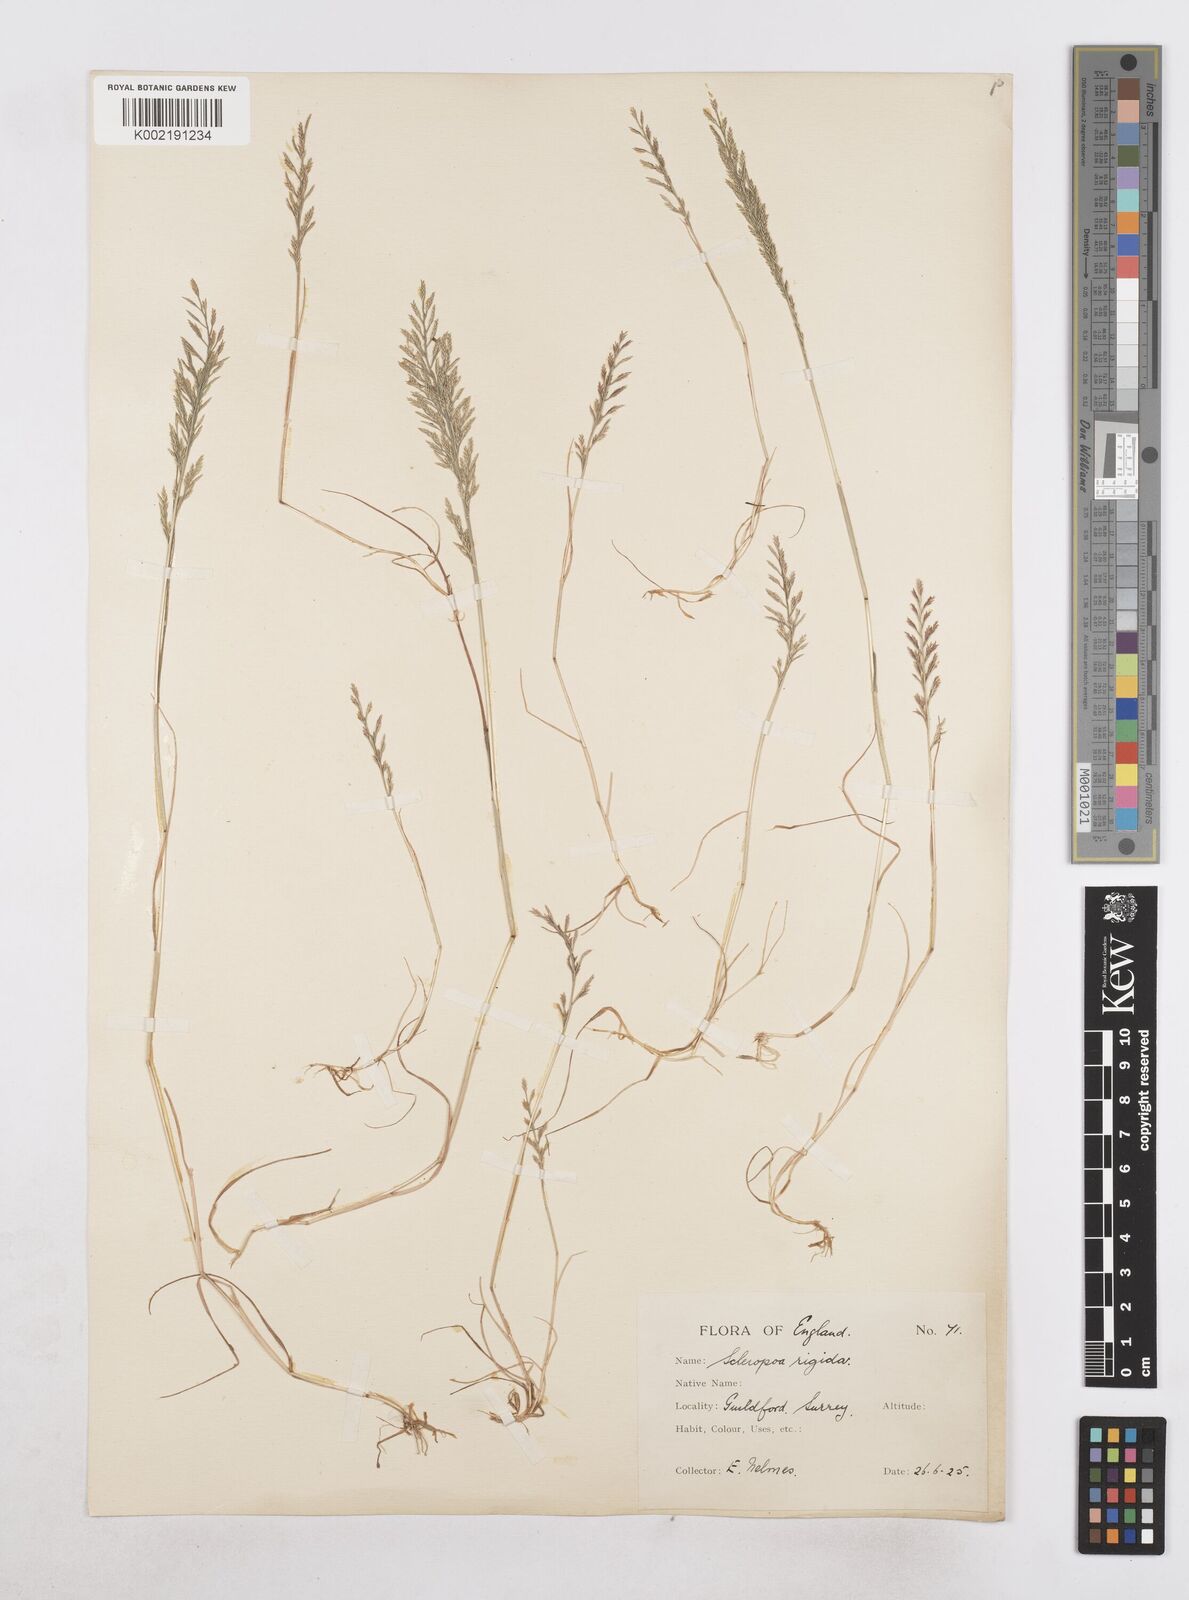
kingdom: Plantae
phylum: Tracheophyta
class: Liliopsida
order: Poales
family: Poaceae
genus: Catapodium
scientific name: Catapodium rigidum
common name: Fern-grass
